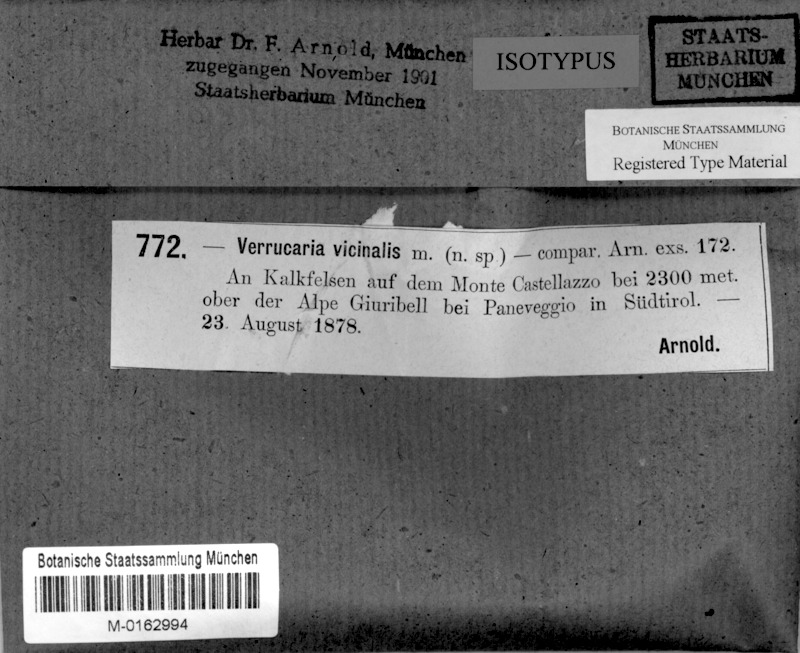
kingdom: Fungi
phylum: Ascomycota
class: Eurotiomycetes
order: Verrucariales
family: Verrucariaceae
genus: Verrucaria
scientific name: Verrucaria vicinalis
